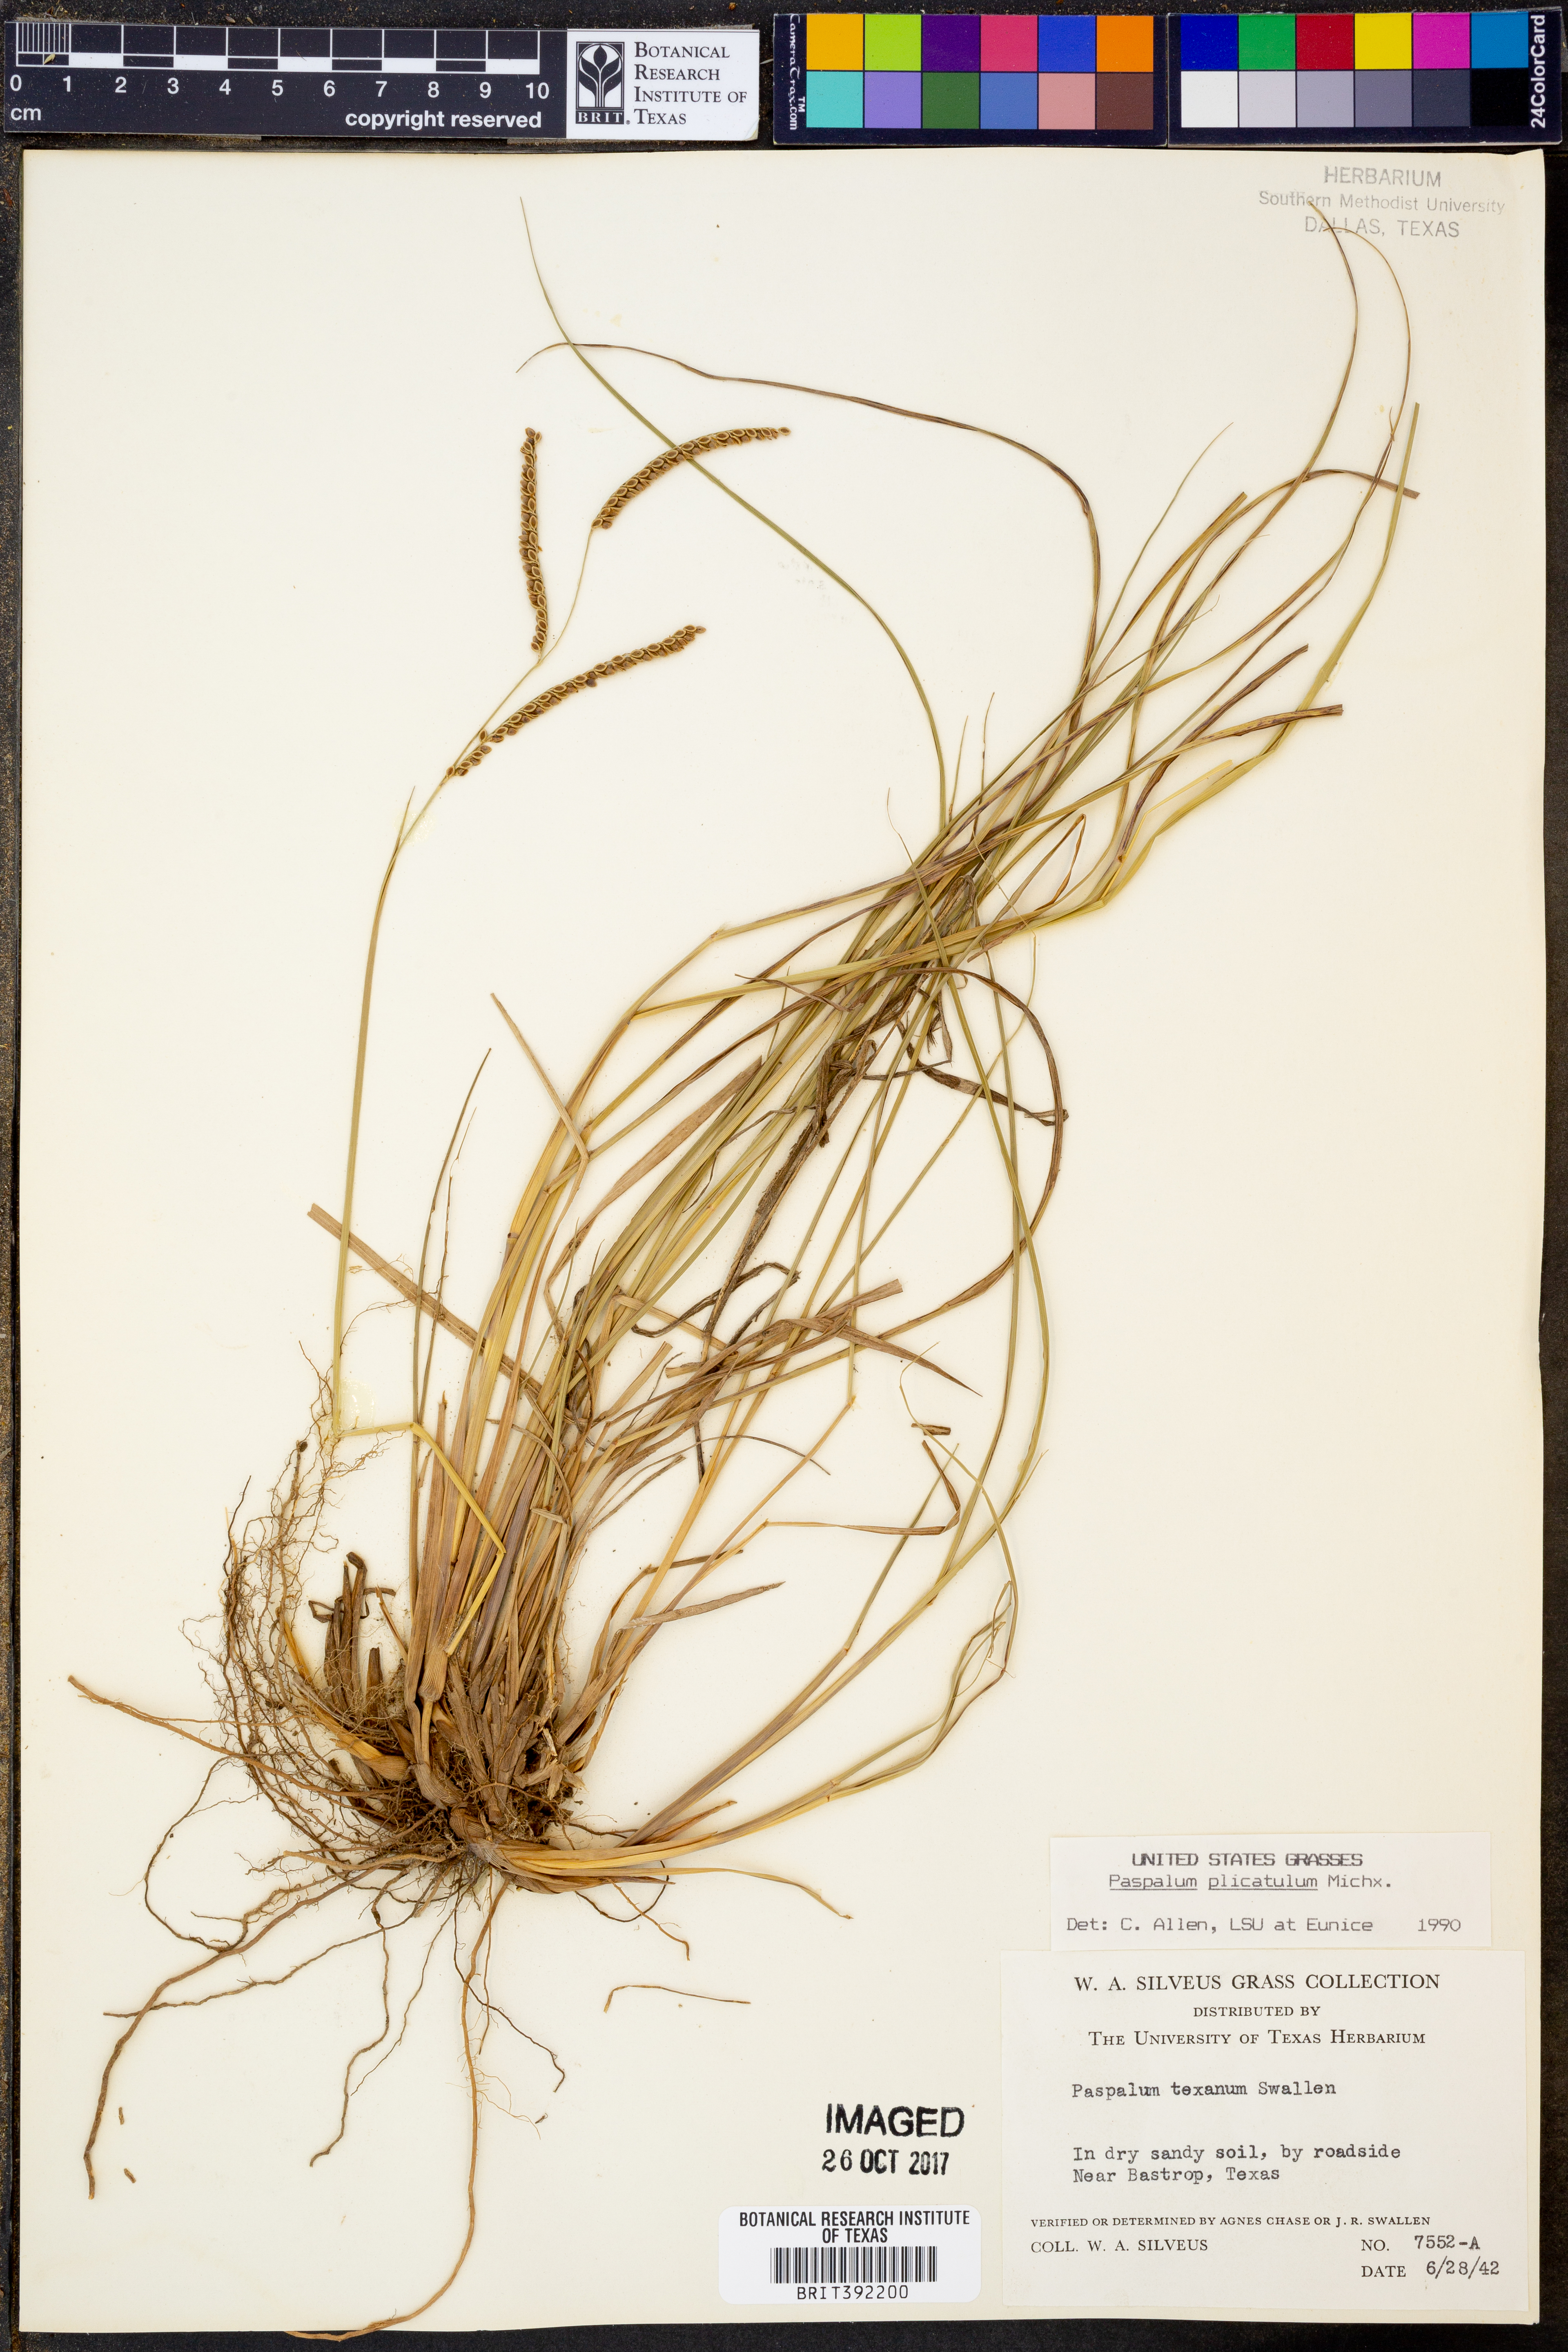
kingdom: Plantae
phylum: Tracheophyta
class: Liliopsida
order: Poales
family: Poaceae
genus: Paspalum
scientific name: Paspalum plicatulum
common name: Top paspalum
